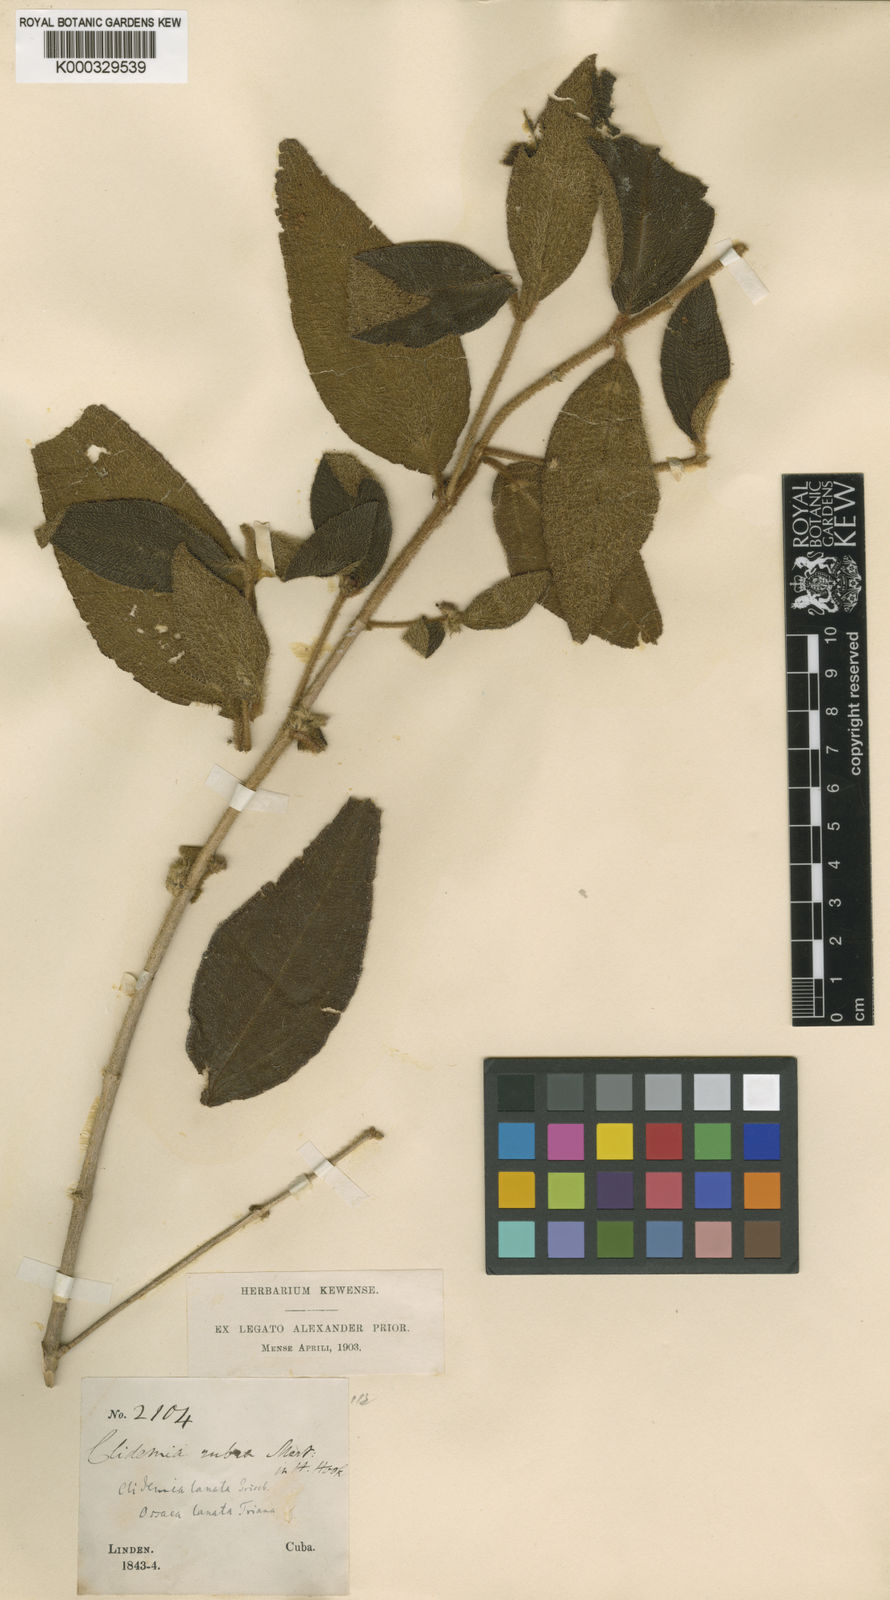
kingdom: Plantae
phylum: Tracheophyta
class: Magnoliopsida
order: Myrtales
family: Melastomataceae
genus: Miconia
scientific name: Miconia lanatifolia
